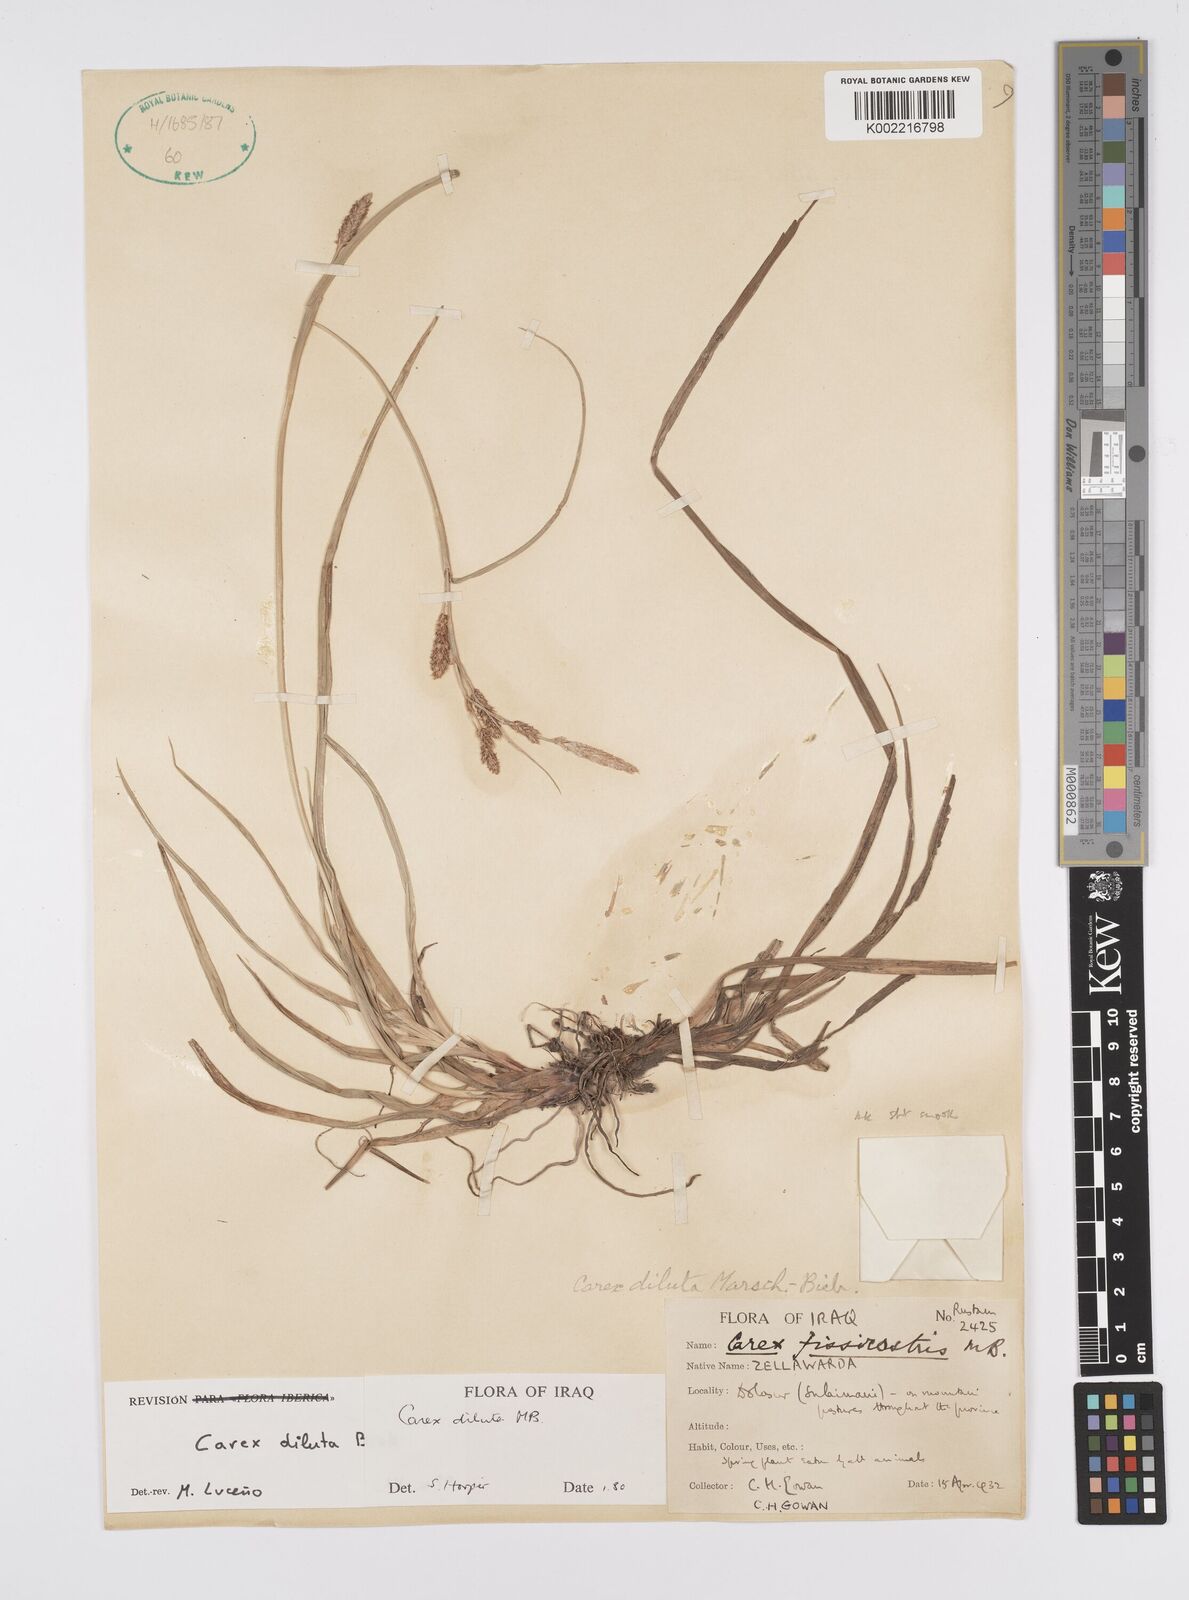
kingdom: Plantae
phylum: Tracheophyta
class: Liliopsida
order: Poales
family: Cyperaceae
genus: Carex
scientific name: Carex diluta
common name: Sedge
